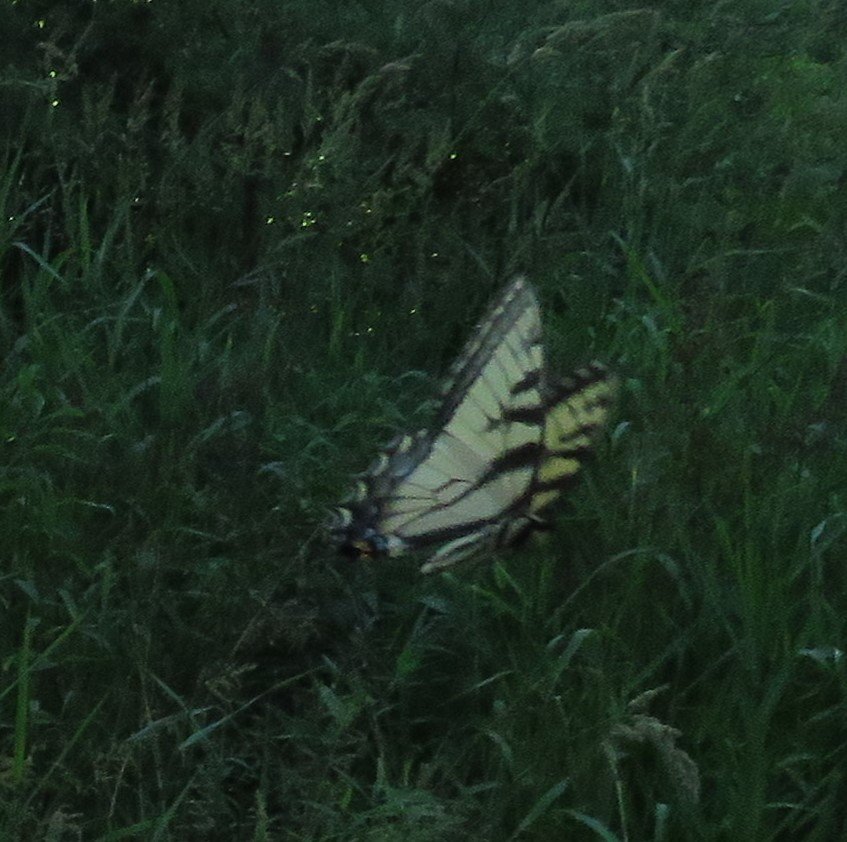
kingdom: Animalia
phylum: Arthropoda
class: Insecta
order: Lepidoptera
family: Papilionidae
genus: Pterourus
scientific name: Pterourus glaucus
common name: Eastern Tiger Swallowtail
